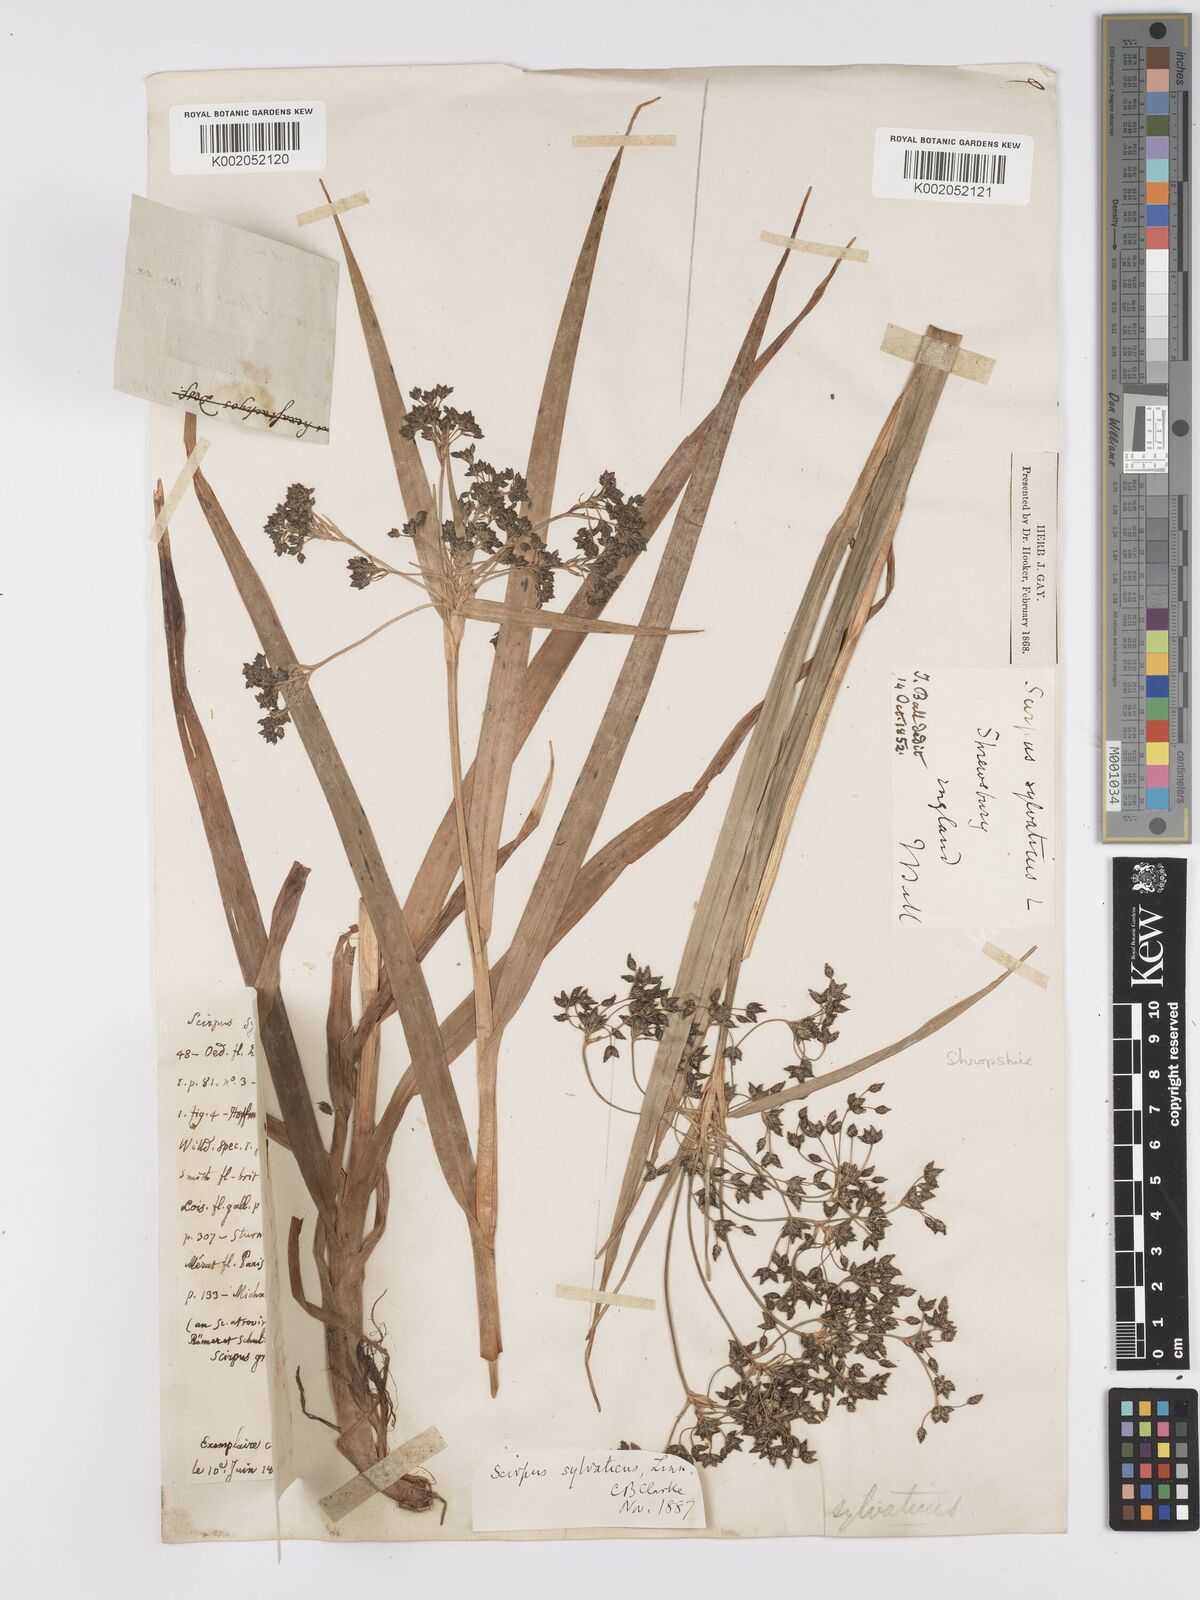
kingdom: Plantae
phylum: Tracheophyta
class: Liliopsida
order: Poales
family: Cyperaceae
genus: Scirpus
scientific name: Scirpus sylvaticus
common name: Wood club-rush
